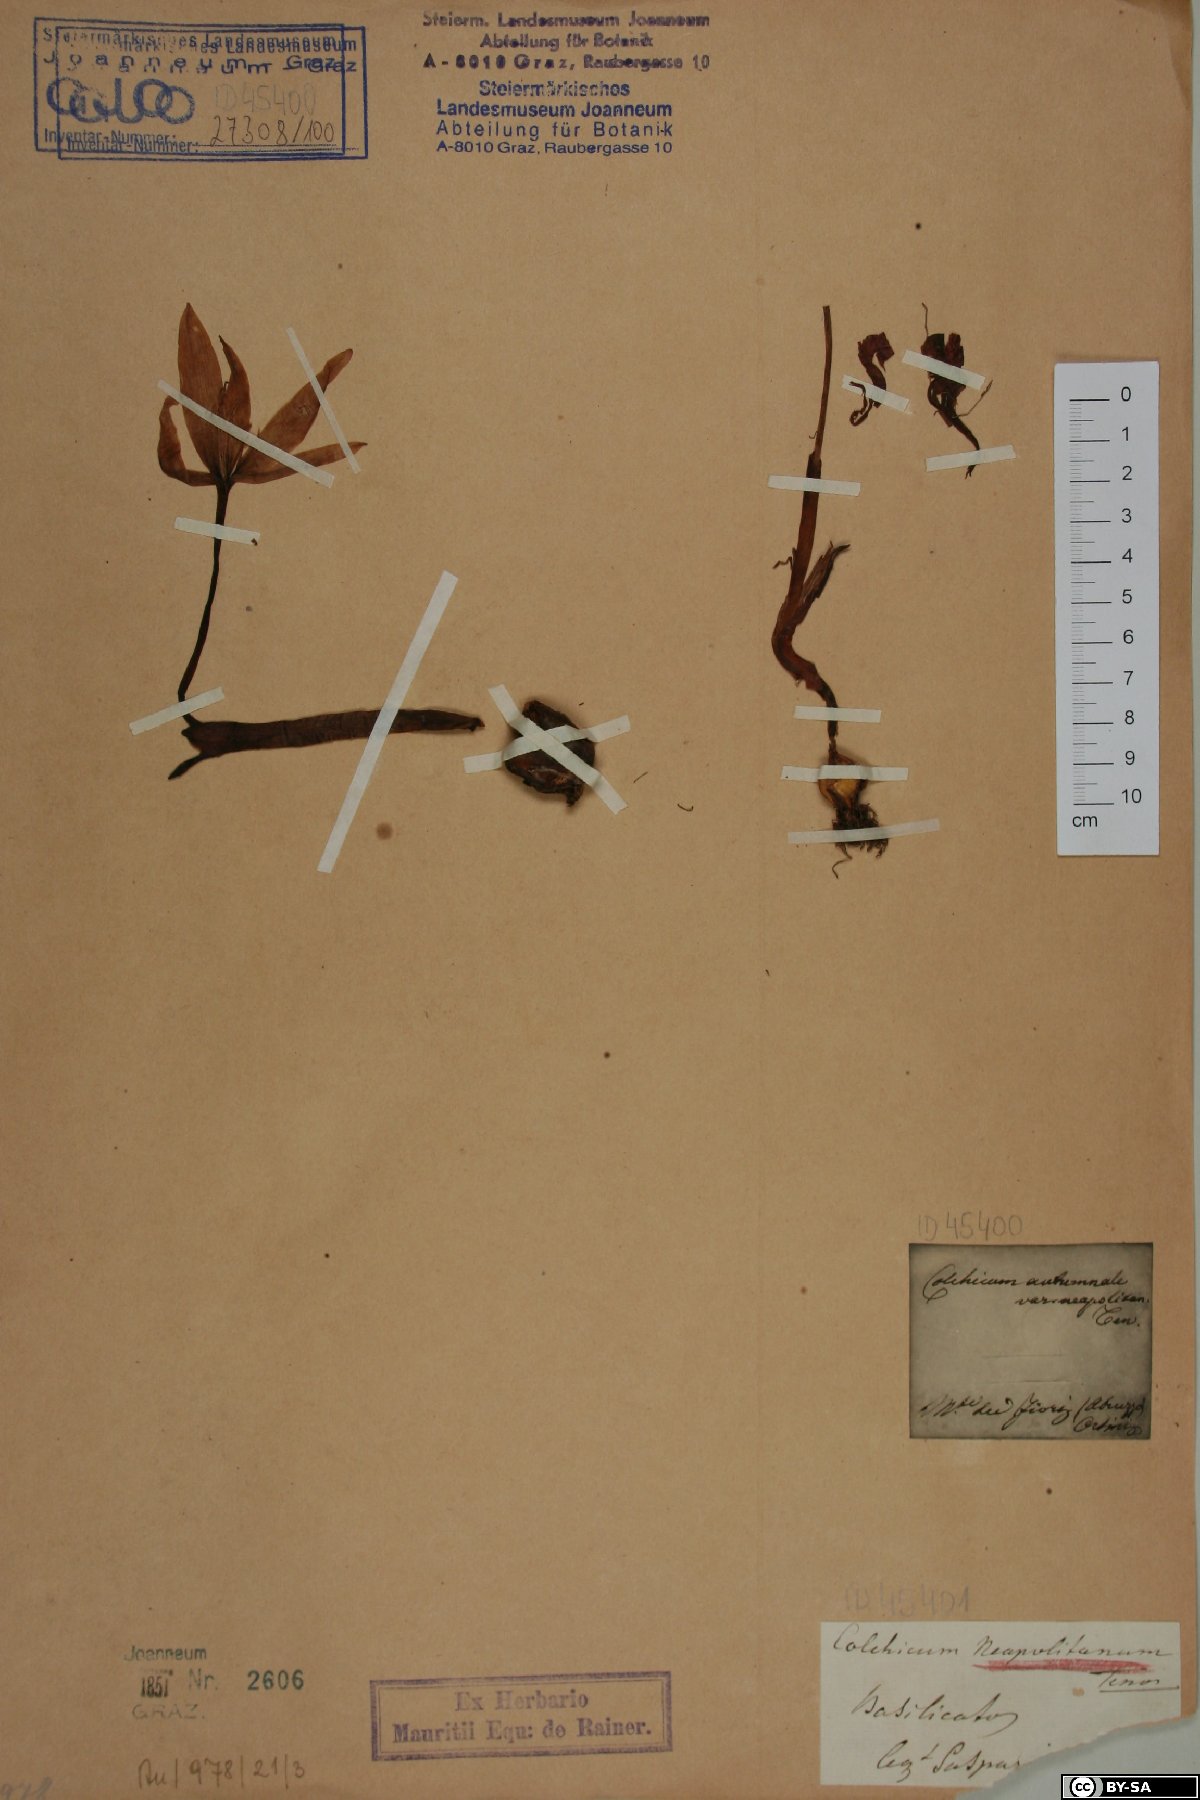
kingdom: Plantae
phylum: Tracheophyta
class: Liliopsida
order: Liliales
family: Colchicaceae
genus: Colchicum
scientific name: Colchicum neapolitanum
